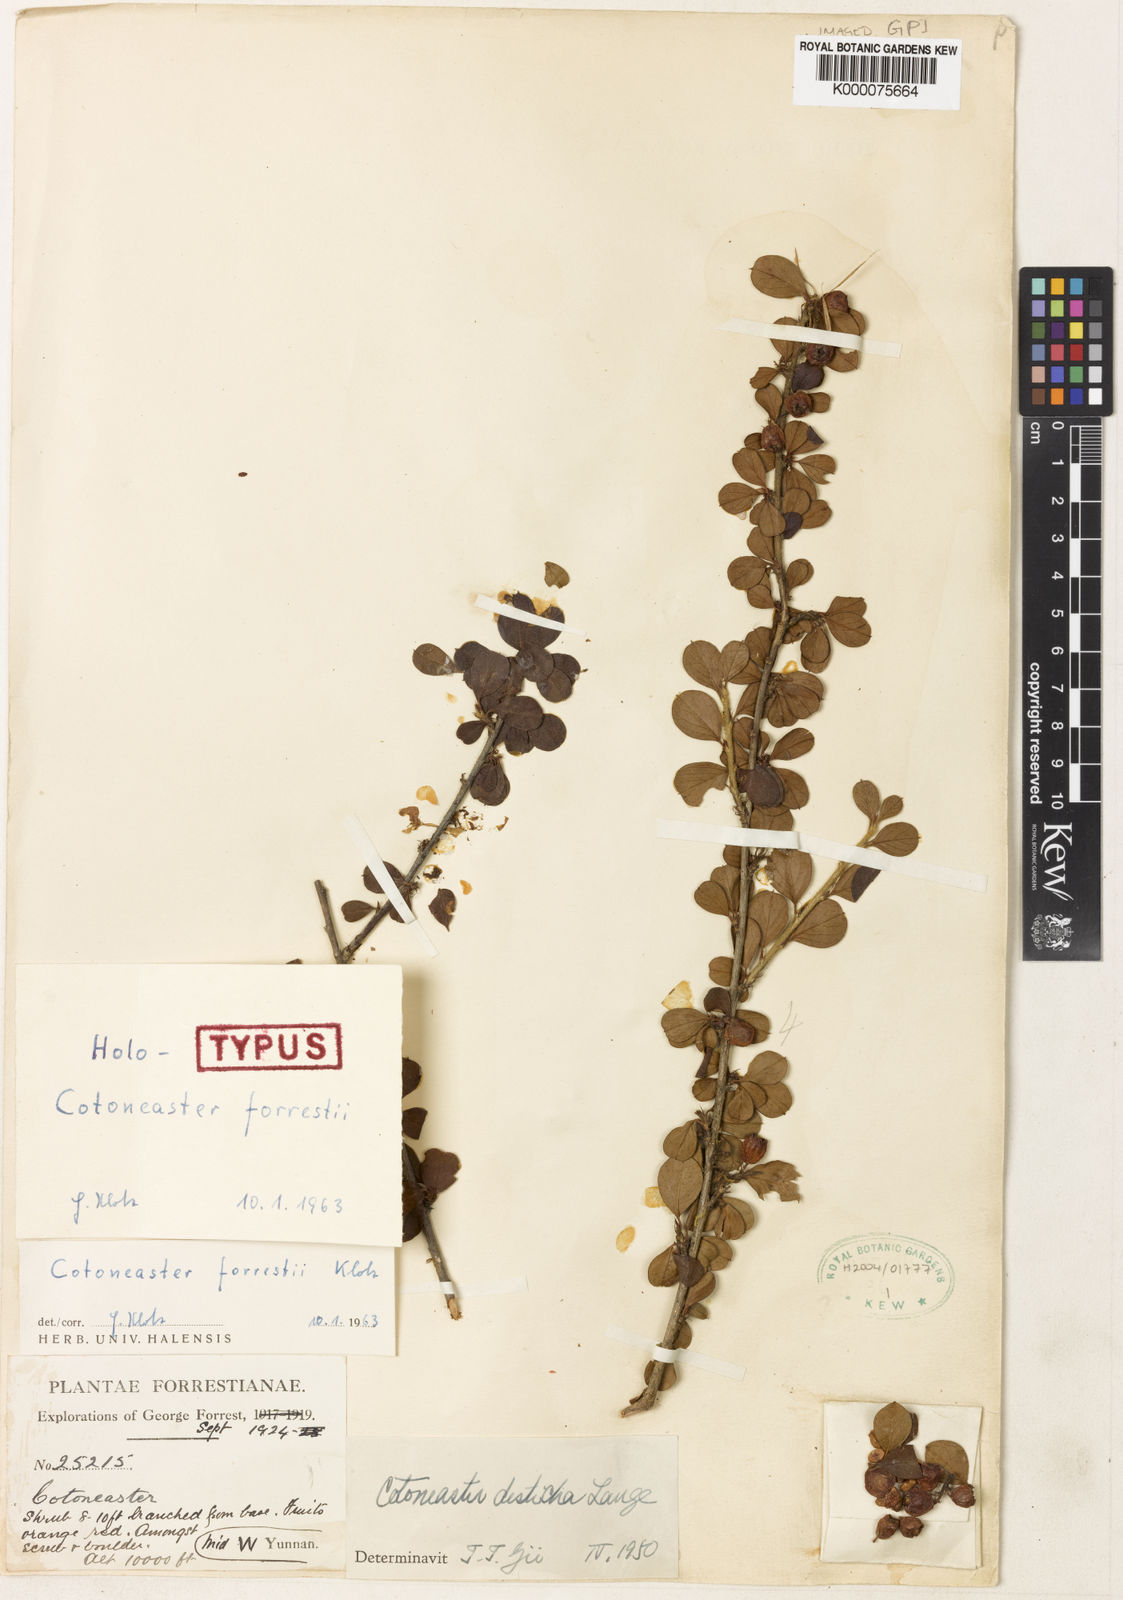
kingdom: Plantae
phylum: Tracheophyta
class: Magnoliopsida
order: Rosales
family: Rosaceae
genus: Cotoneaster
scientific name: Cotoneaster rotundifolius
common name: Round-leaved cotoneaster
